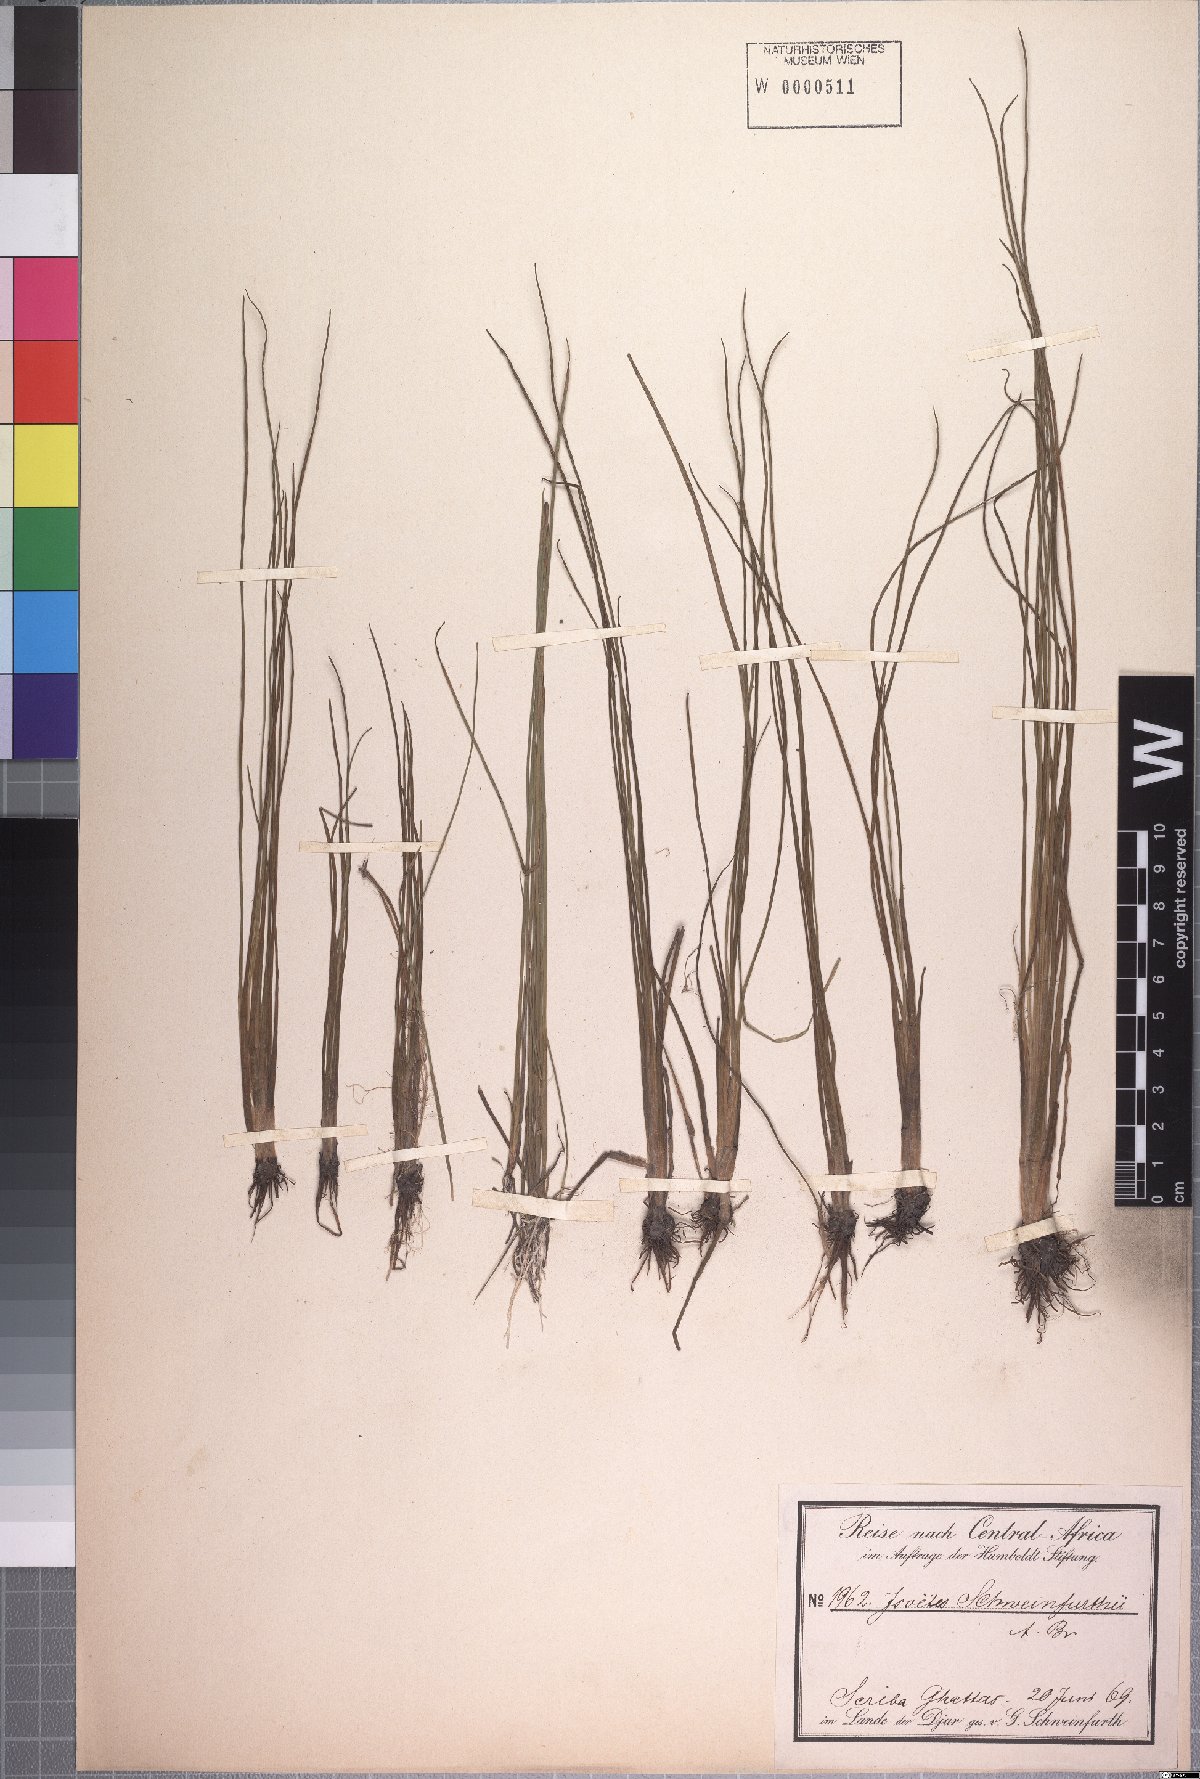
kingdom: Plantae
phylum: Tracheophyta
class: Lycopodiopsida
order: Isoetales
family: Isoetaceae
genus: Isoetes
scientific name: Isoetes schweinfurthii
